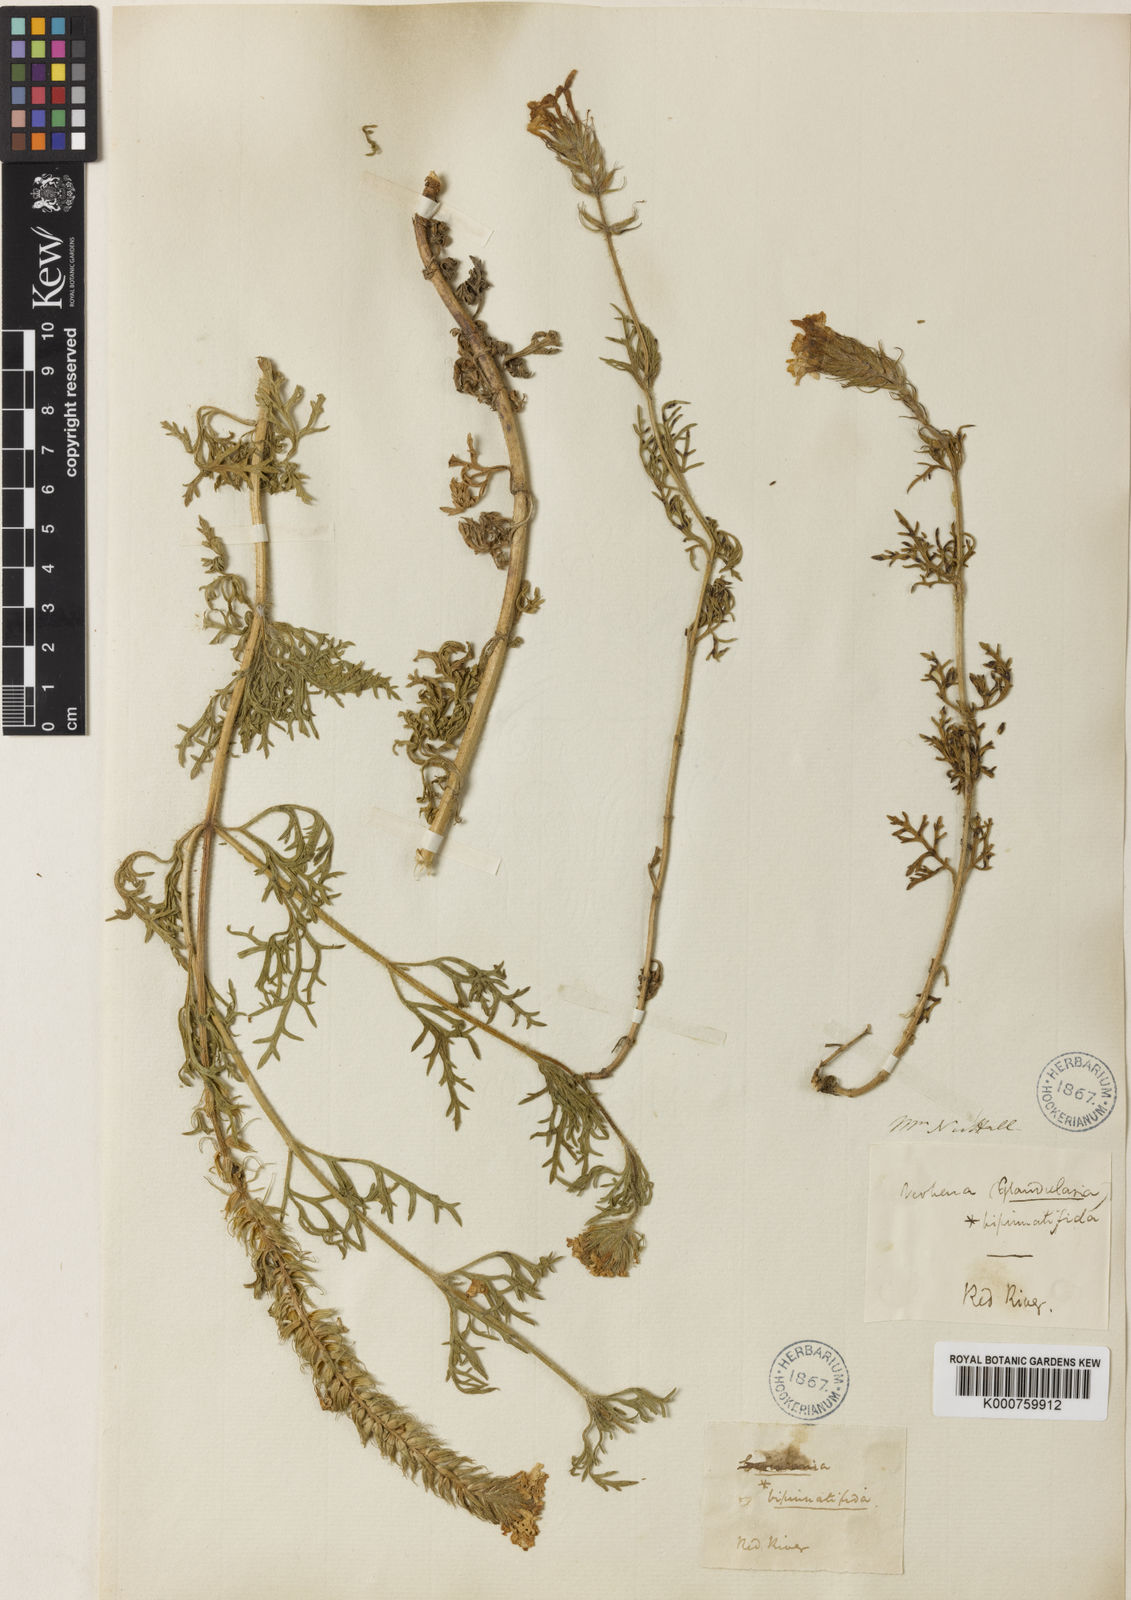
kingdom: Plantae
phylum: Tracheophyta
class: Magnoliopsida
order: Lamiales
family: Verbenaceae
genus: Verbena
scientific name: Verbena
